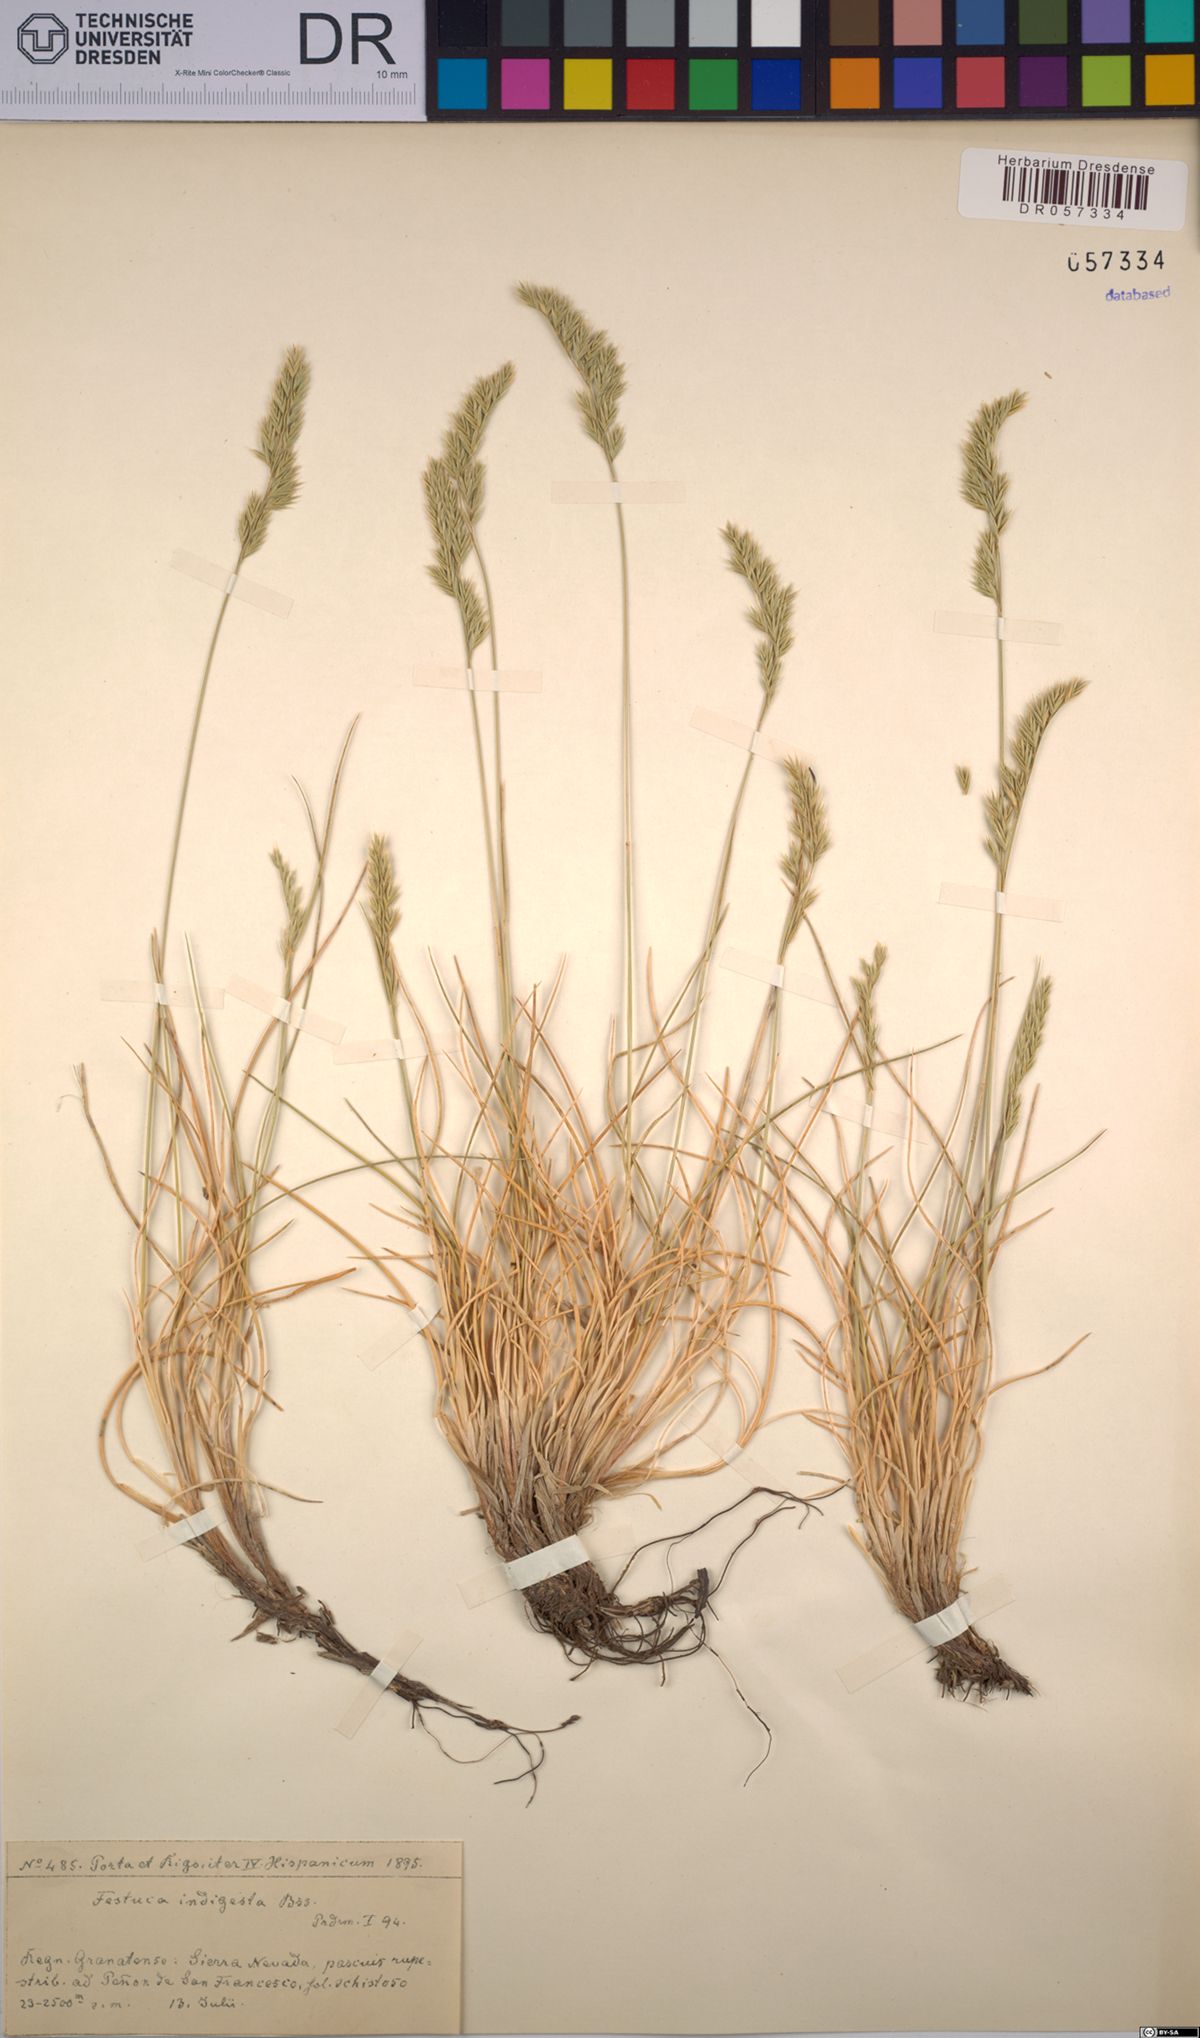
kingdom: Plantae
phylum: Tracheophyta
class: Liliopsida
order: Poales
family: Poaceae
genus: Festuca
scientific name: Festuca indigesta
